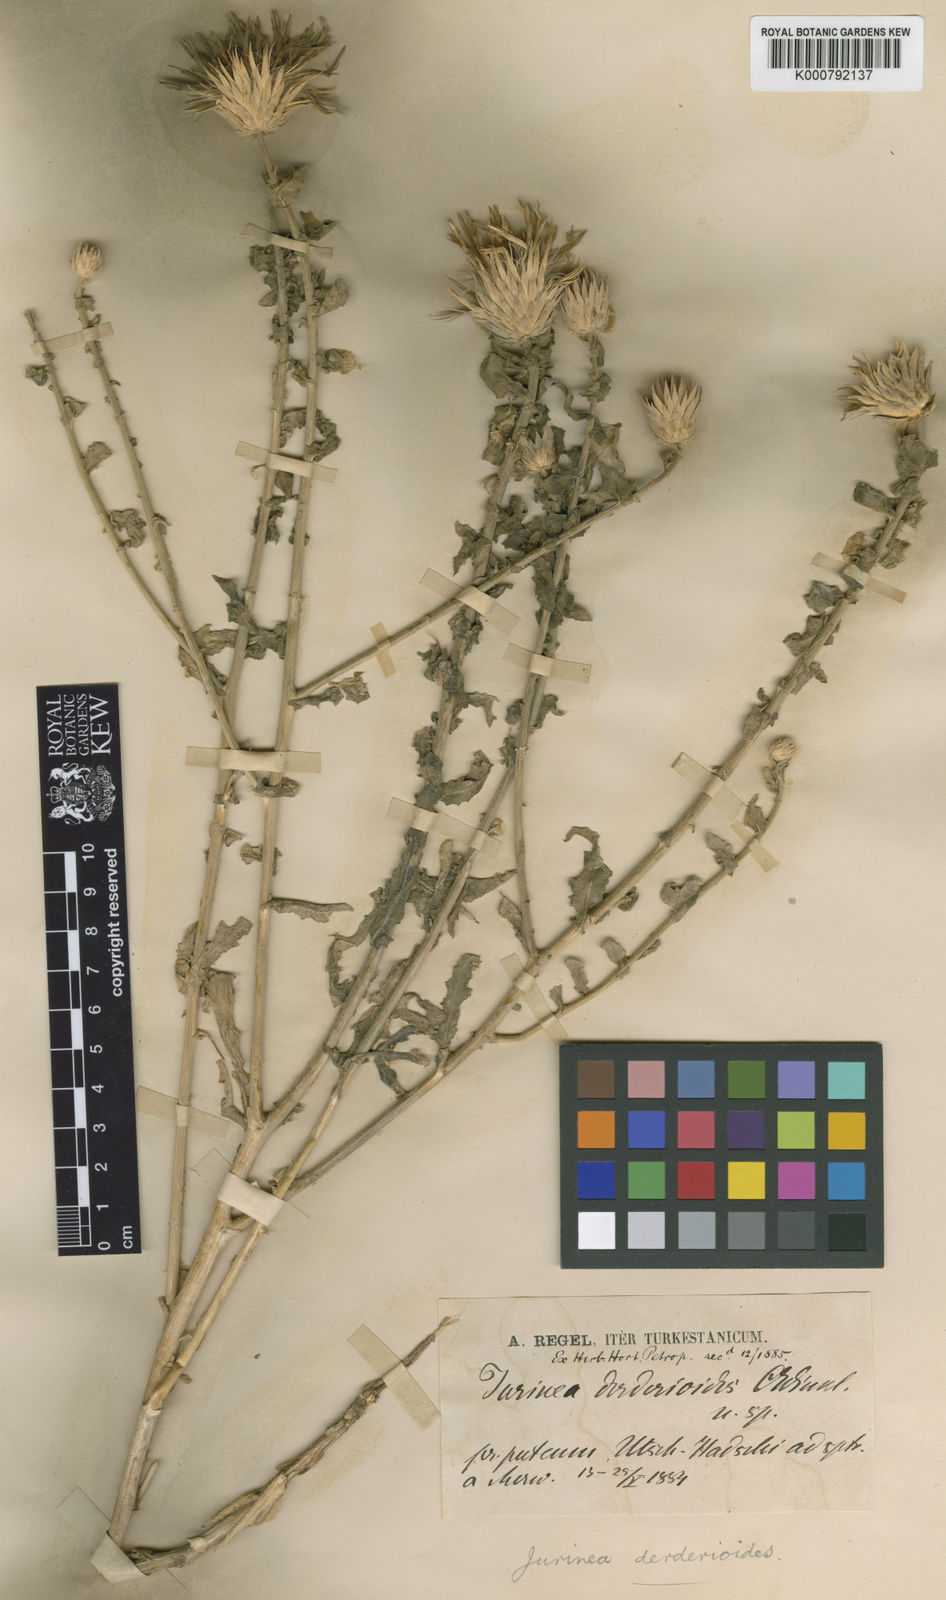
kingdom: Plantae
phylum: Tracheophyta
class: Magnoliopsida
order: Asterales
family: Asteraceae
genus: Jurinea
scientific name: Jurinea derderioides
